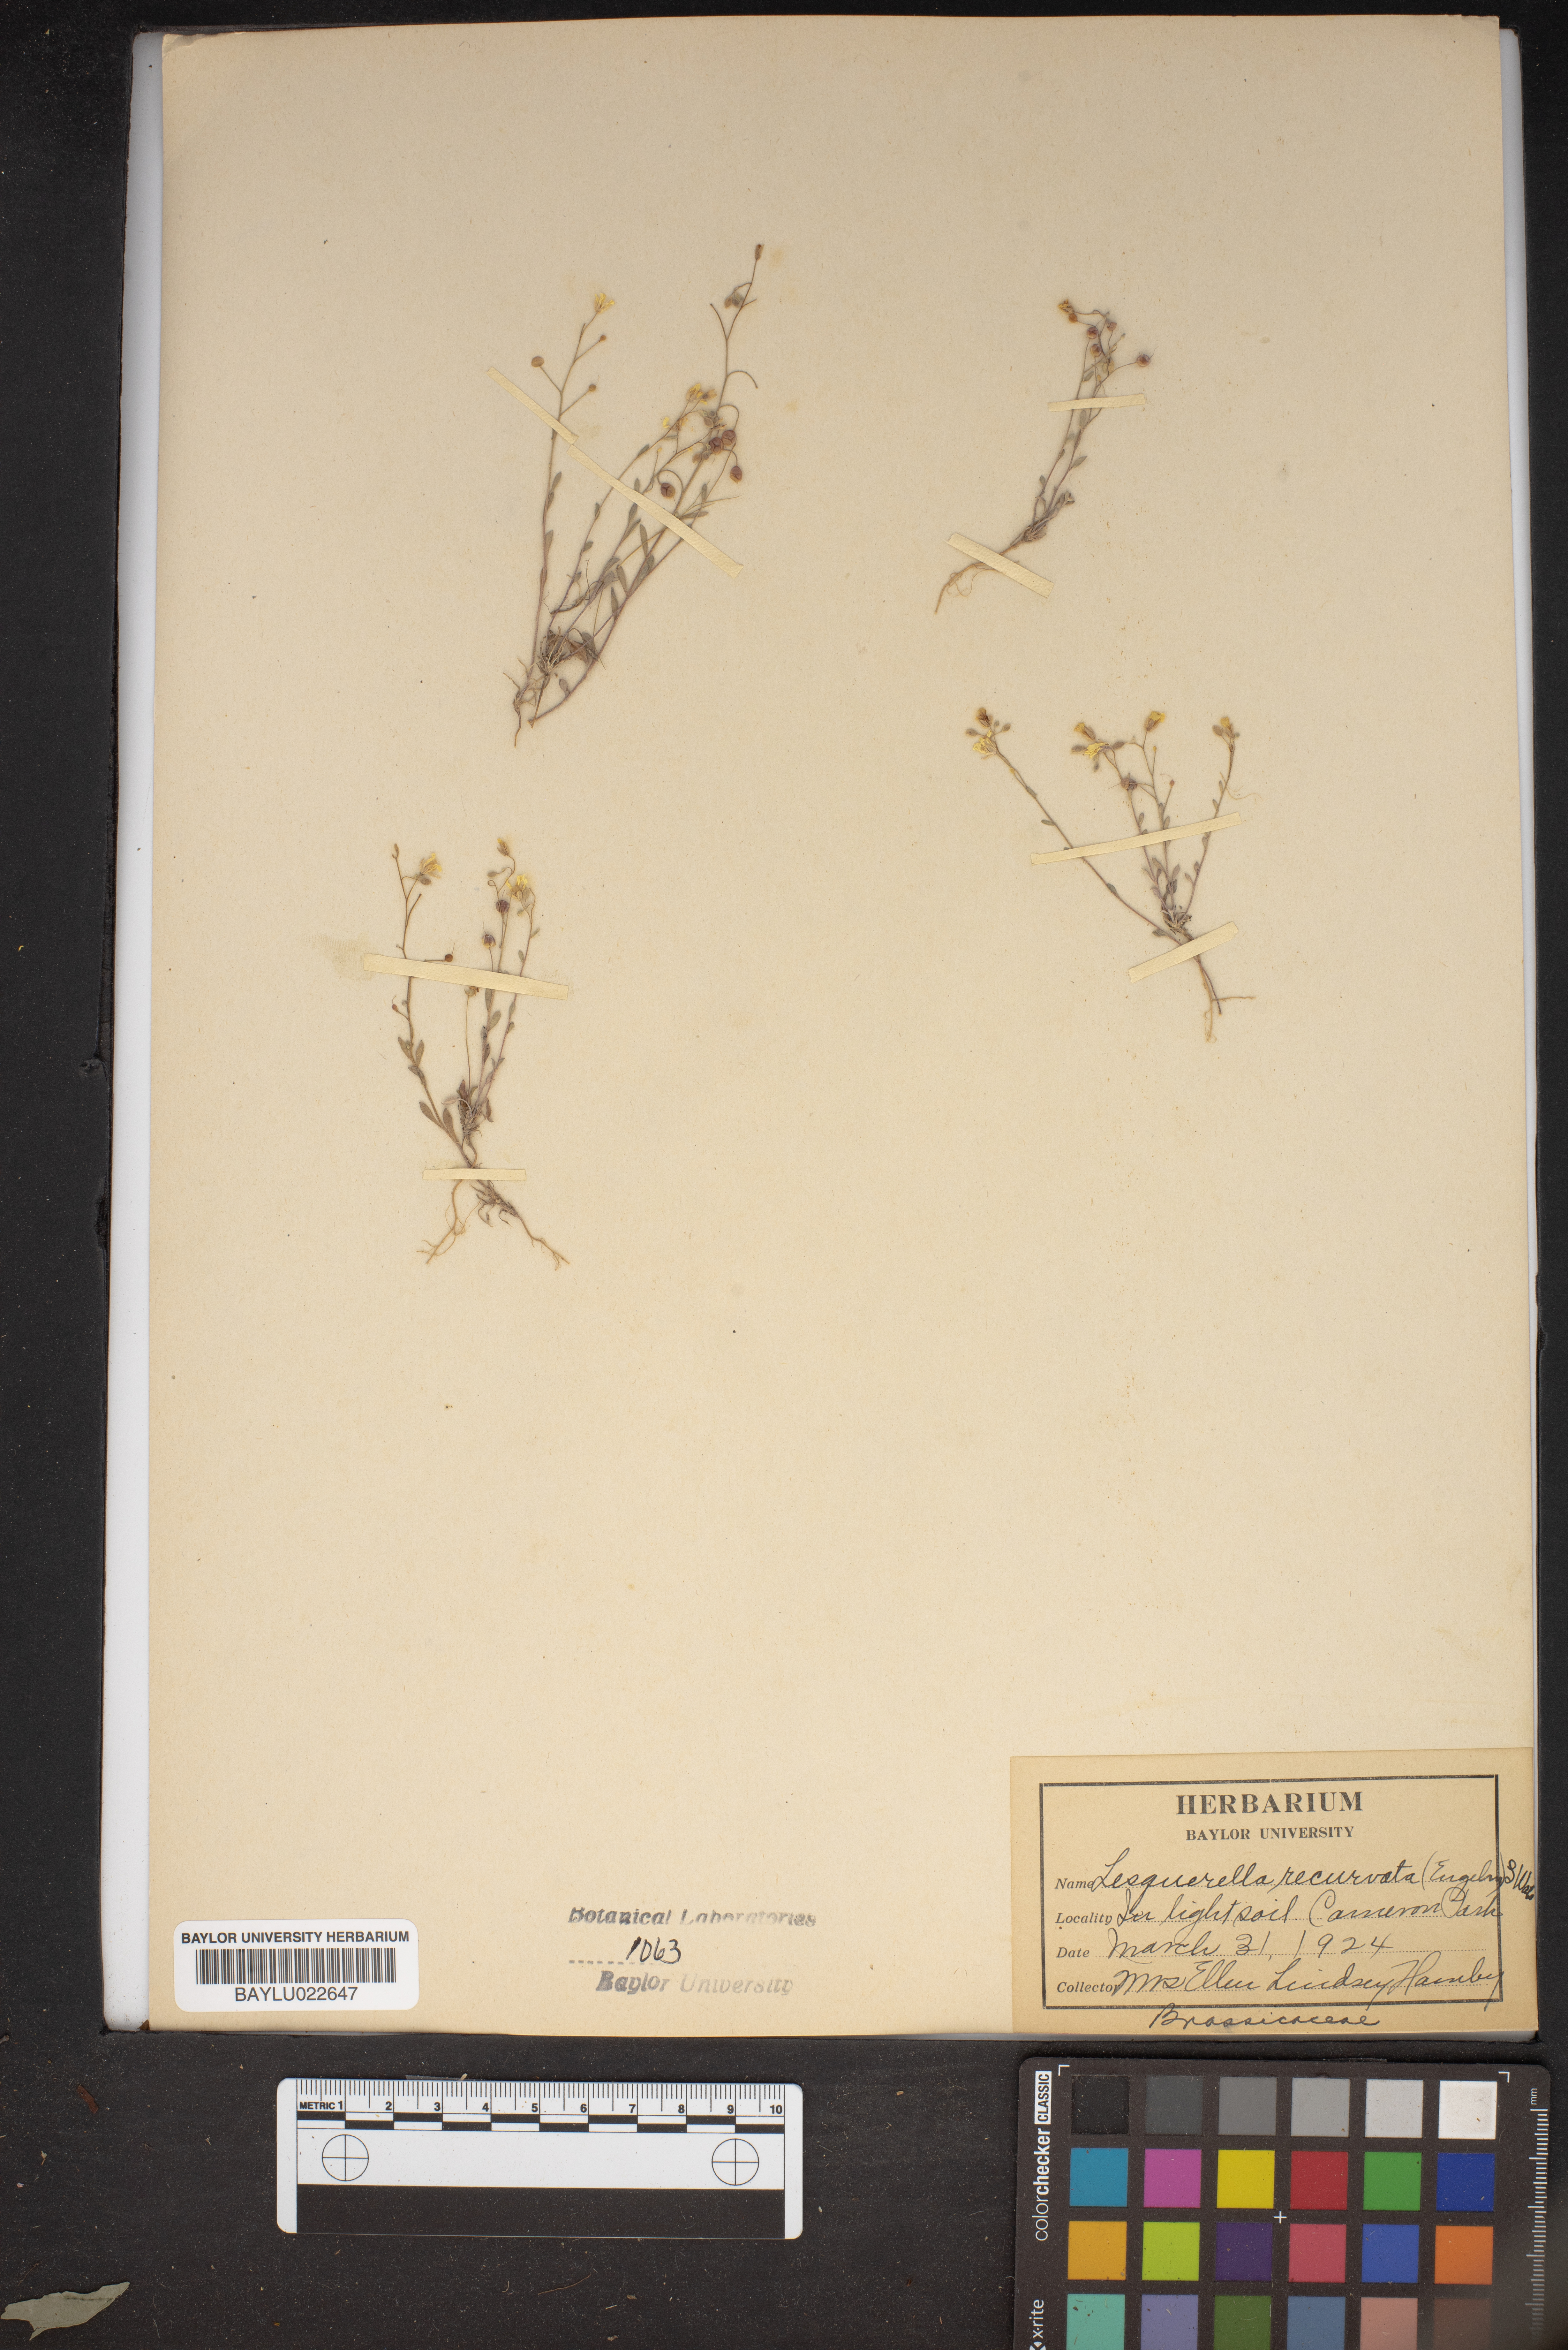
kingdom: Plantae
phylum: Tracheophyta
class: Magnoliopsida
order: Brassicales
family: Brassicaceae
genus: Physaria
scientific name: Physaria recurvata
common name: Gaslight bladderpod
